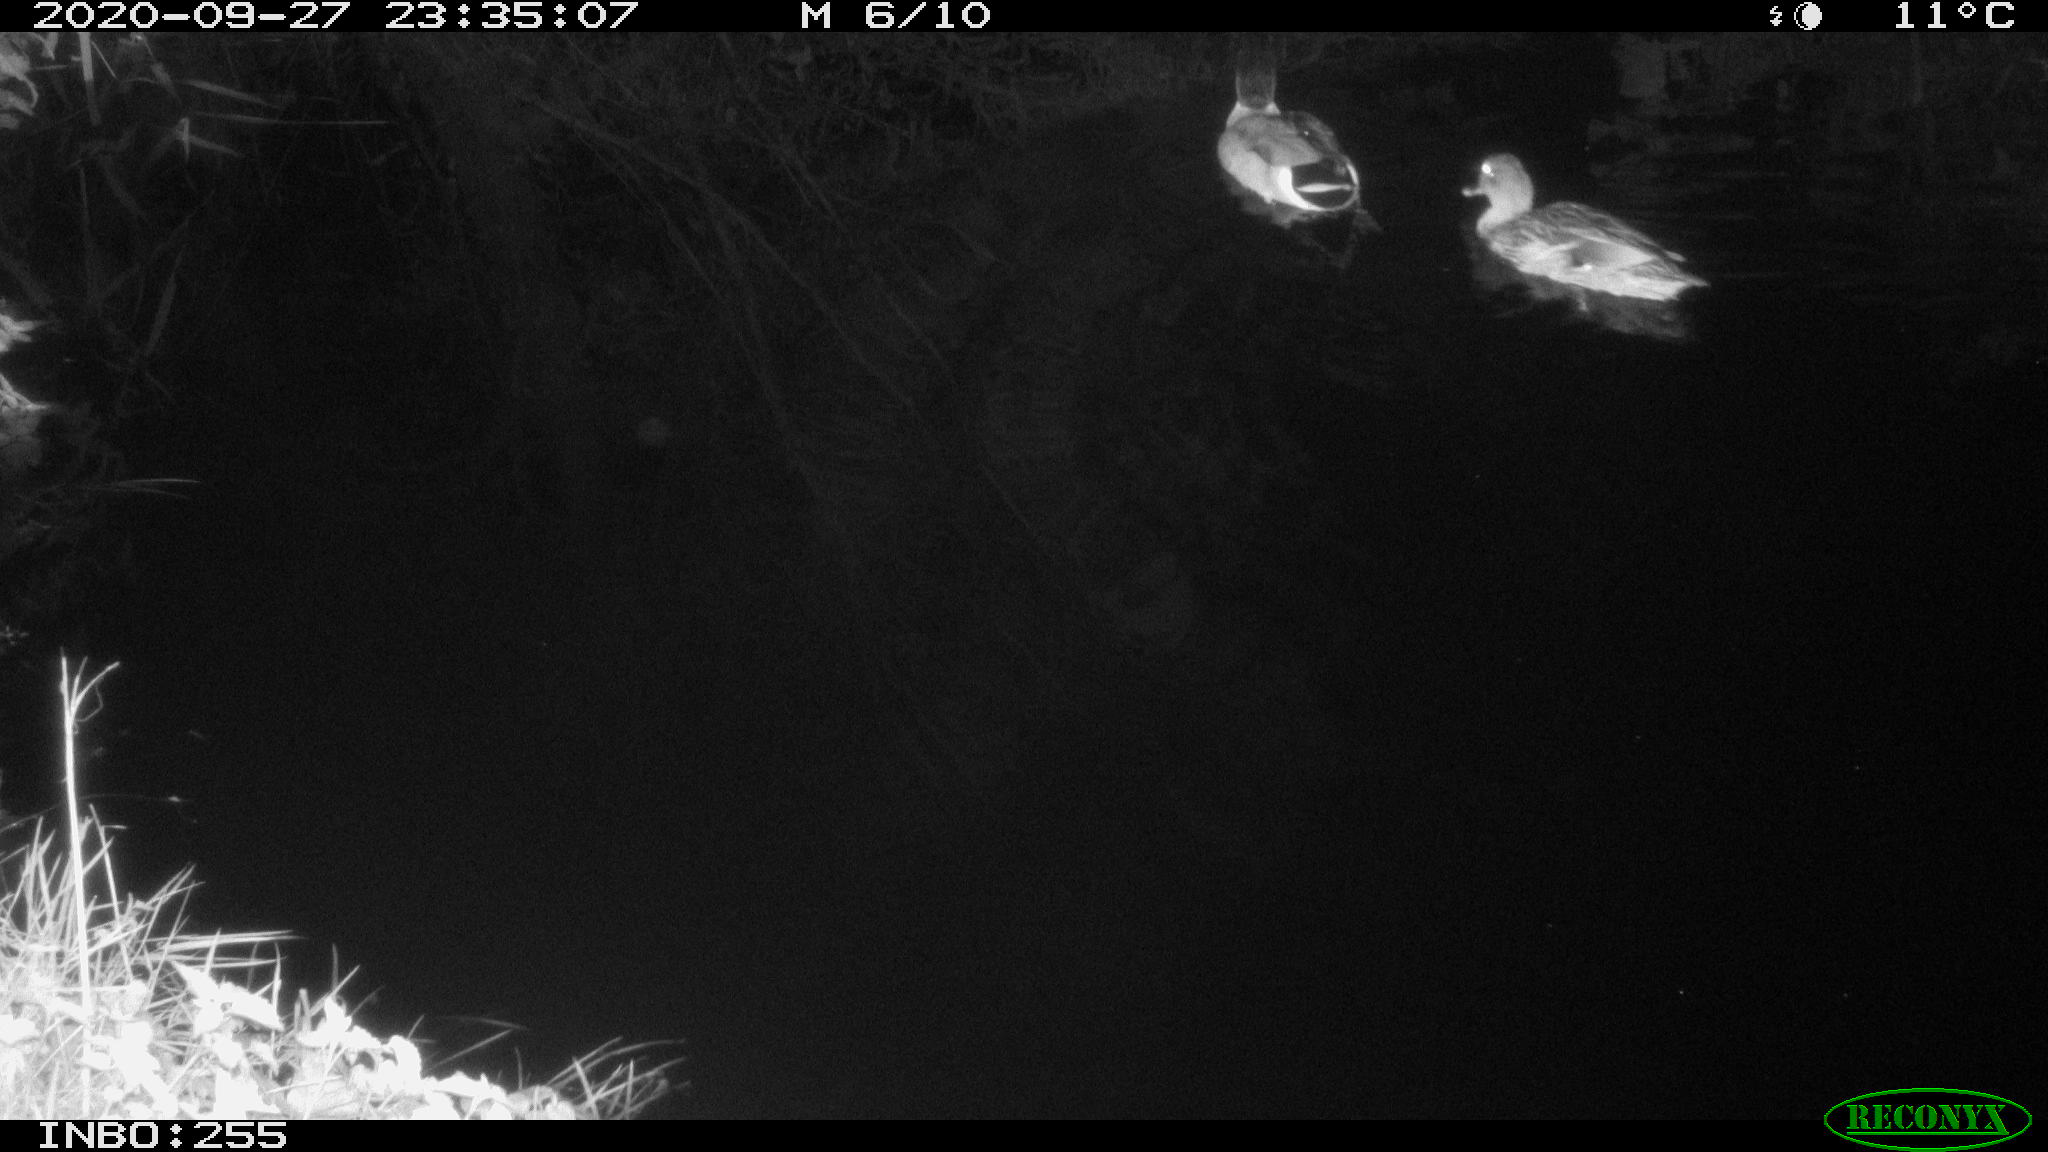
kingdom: Animalia
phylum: Chordata
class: Aves
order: Anseriformes
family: Anatidae
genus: Anas
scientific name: Anas platyrhynchos
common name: Mallard
